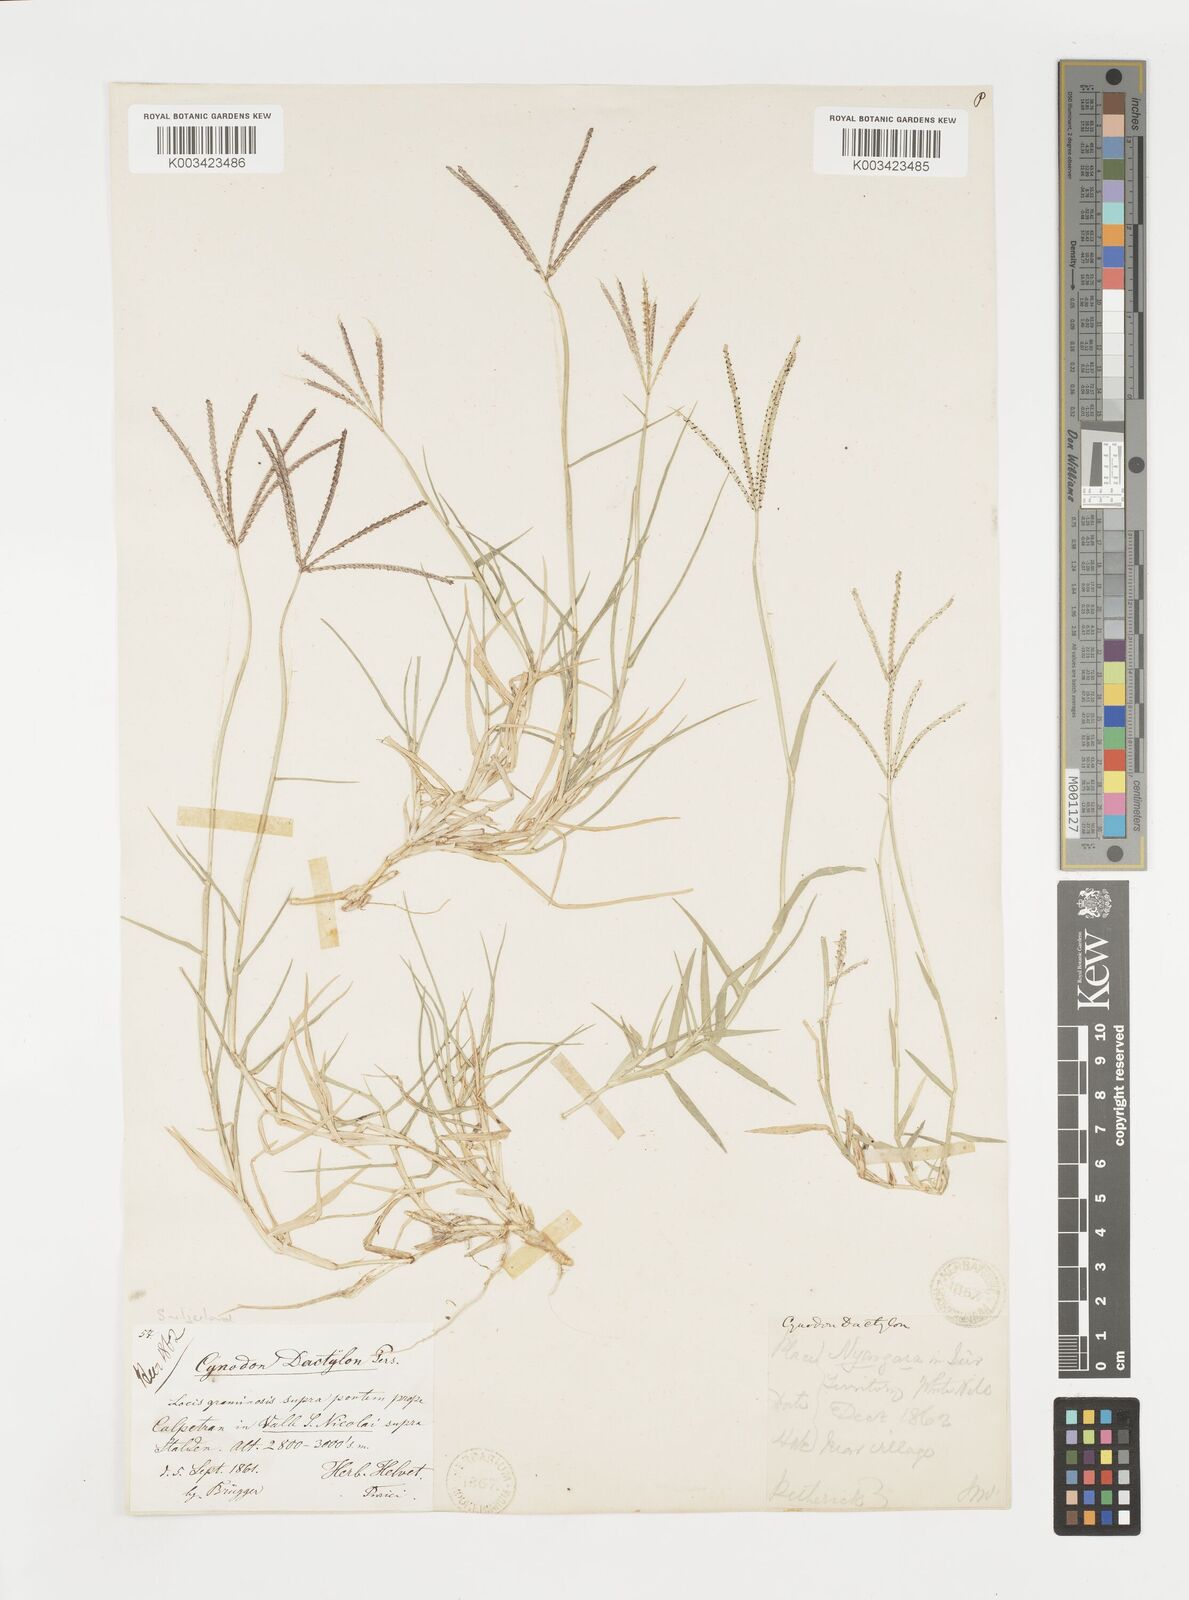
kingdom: Plantae
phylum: Tracheophyta
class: Liliopsida
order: Poales
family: Poaceae
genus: Cynodon
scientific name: Cynodon dactylon
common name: Bermuda grass
